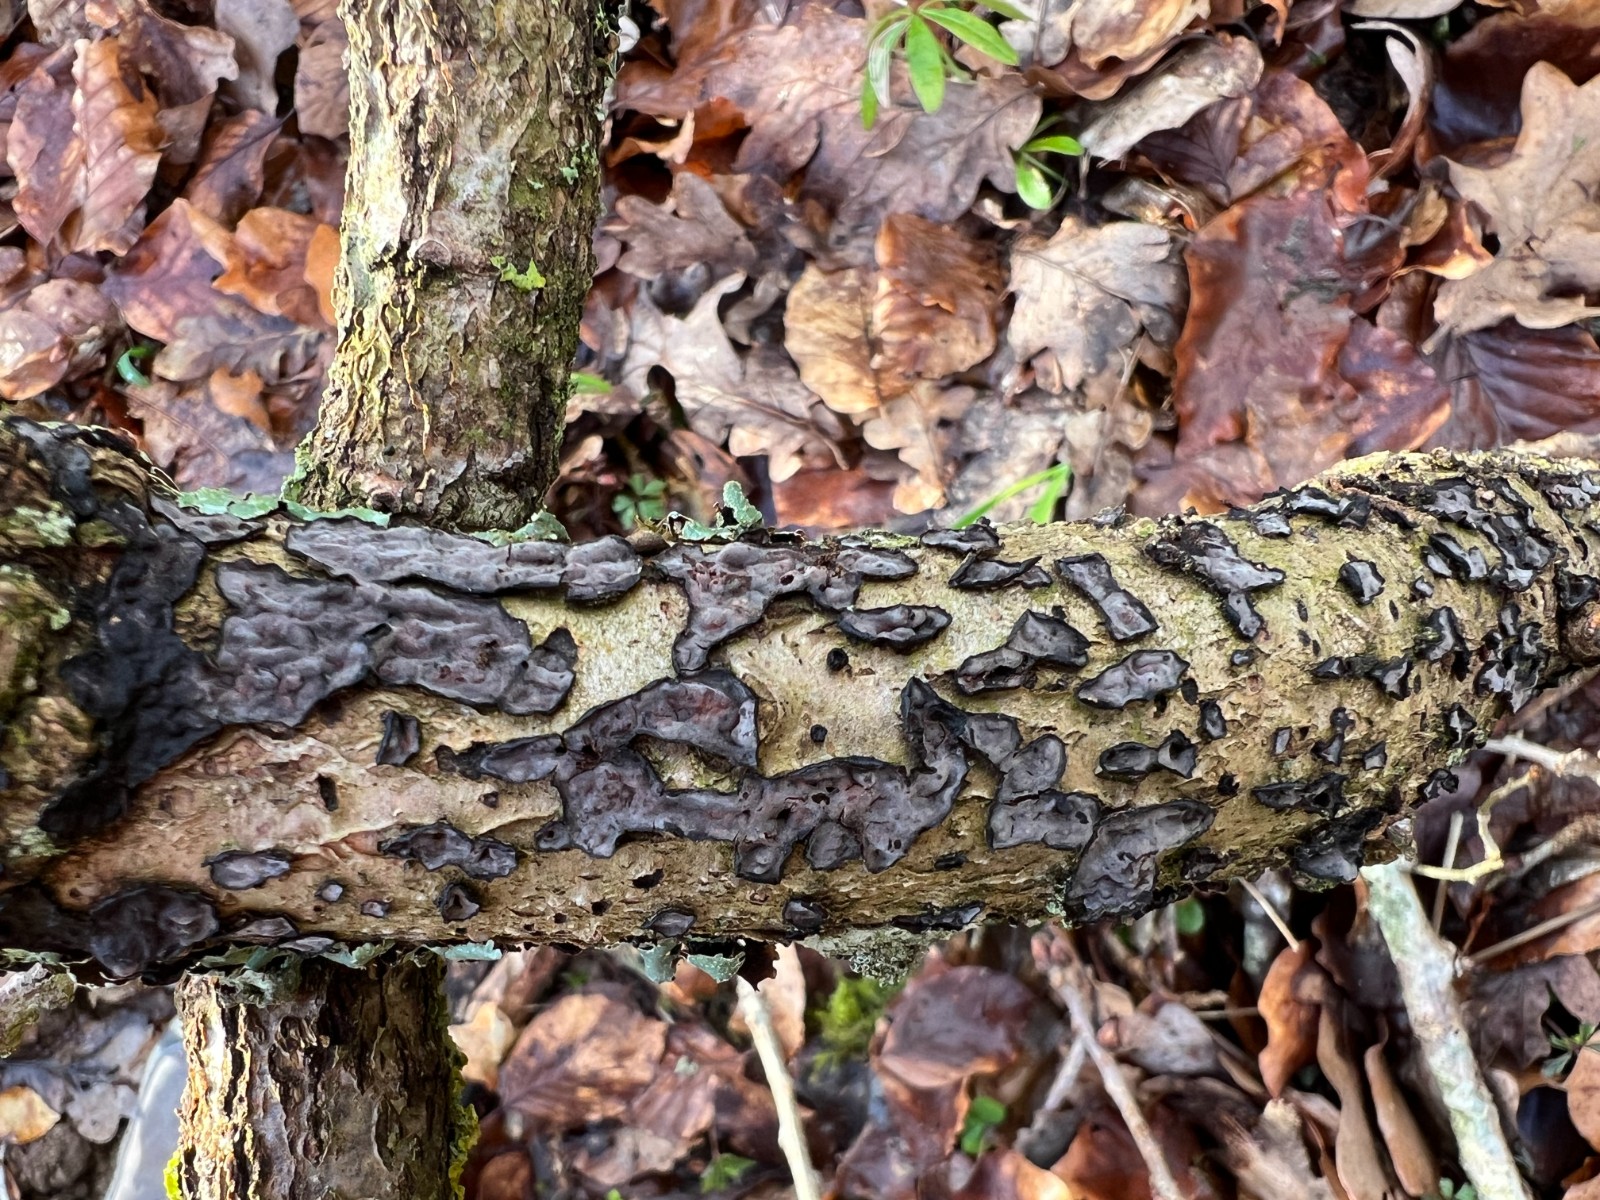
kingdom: Fungi
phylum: Basidiomycota
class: Agaricomycetes
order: Russulales
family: Peniophoraceae
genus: Peniophora
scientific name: Peniophora quercina
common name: ege-voksskind
